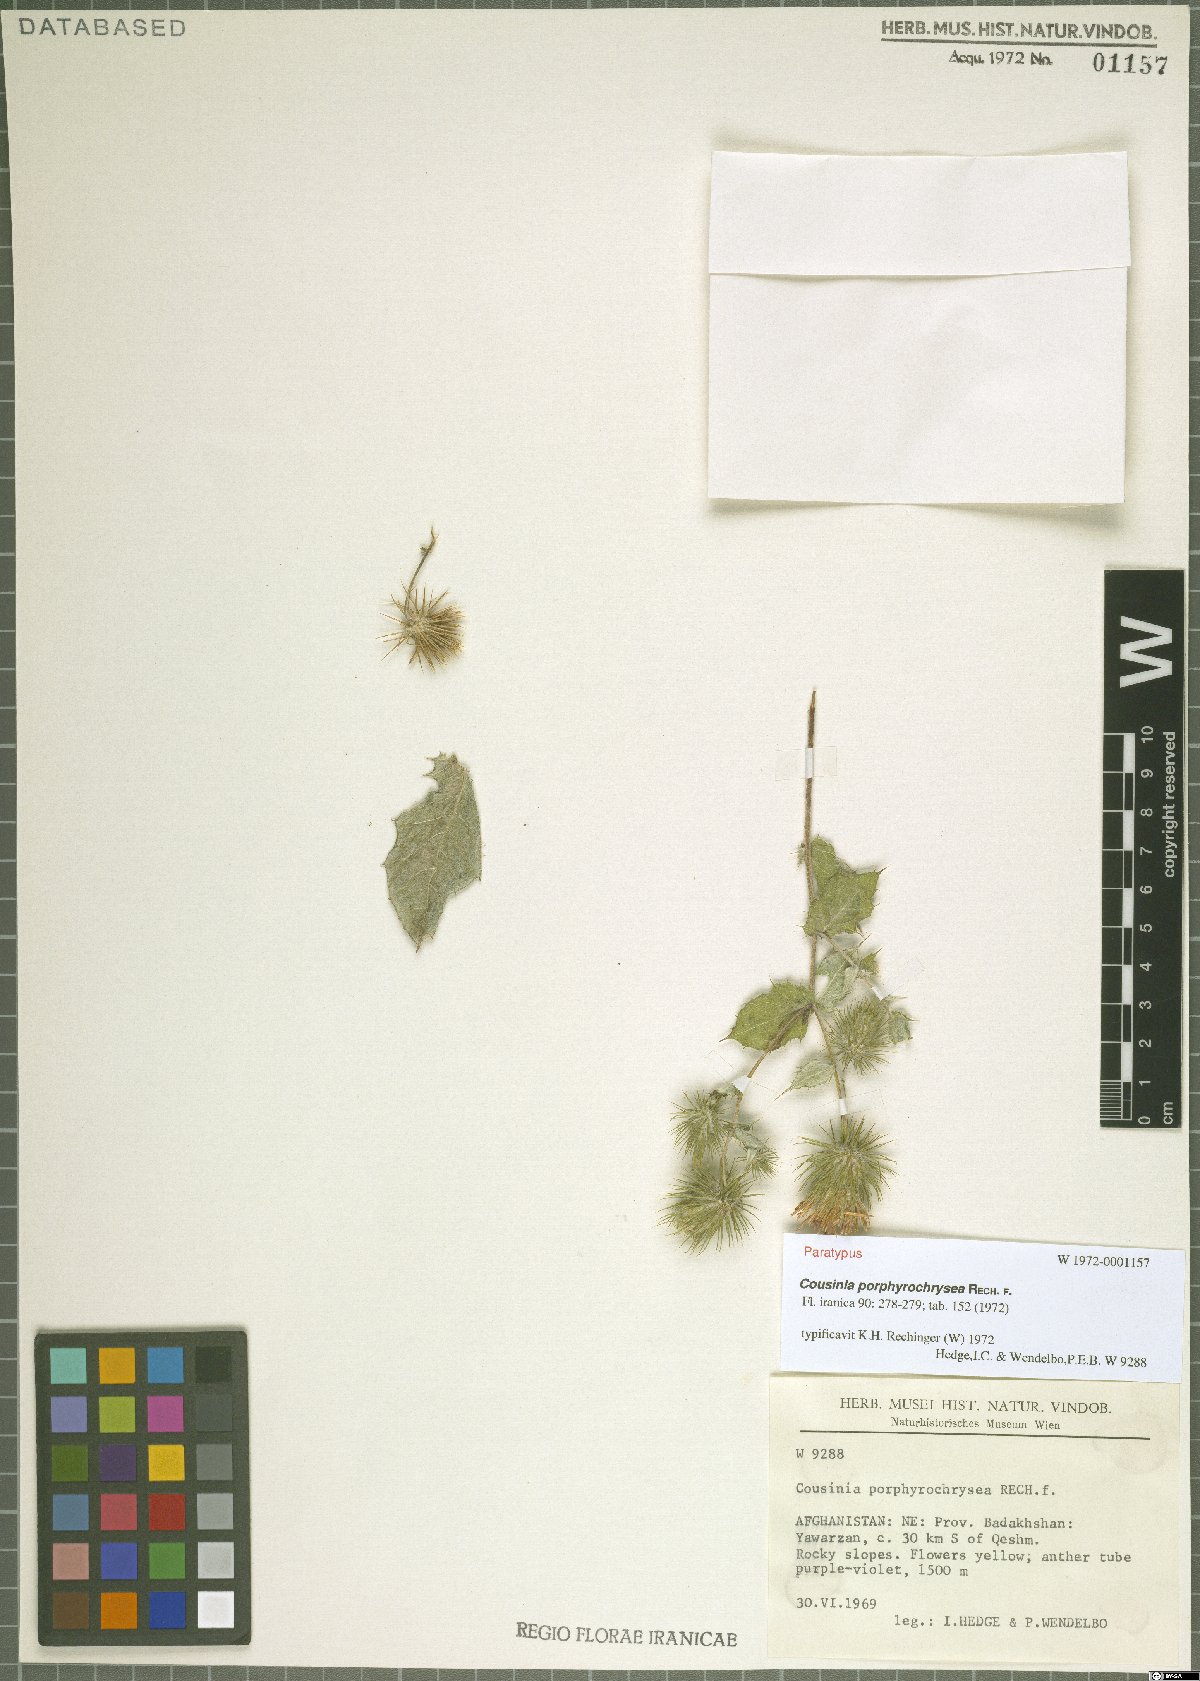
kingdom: Plantae
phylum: Tracheophyta
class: Magnoliopsida
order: Asterales
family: Asteraceae
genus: Cousinia
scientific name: Cousinia porphyrochrysea
